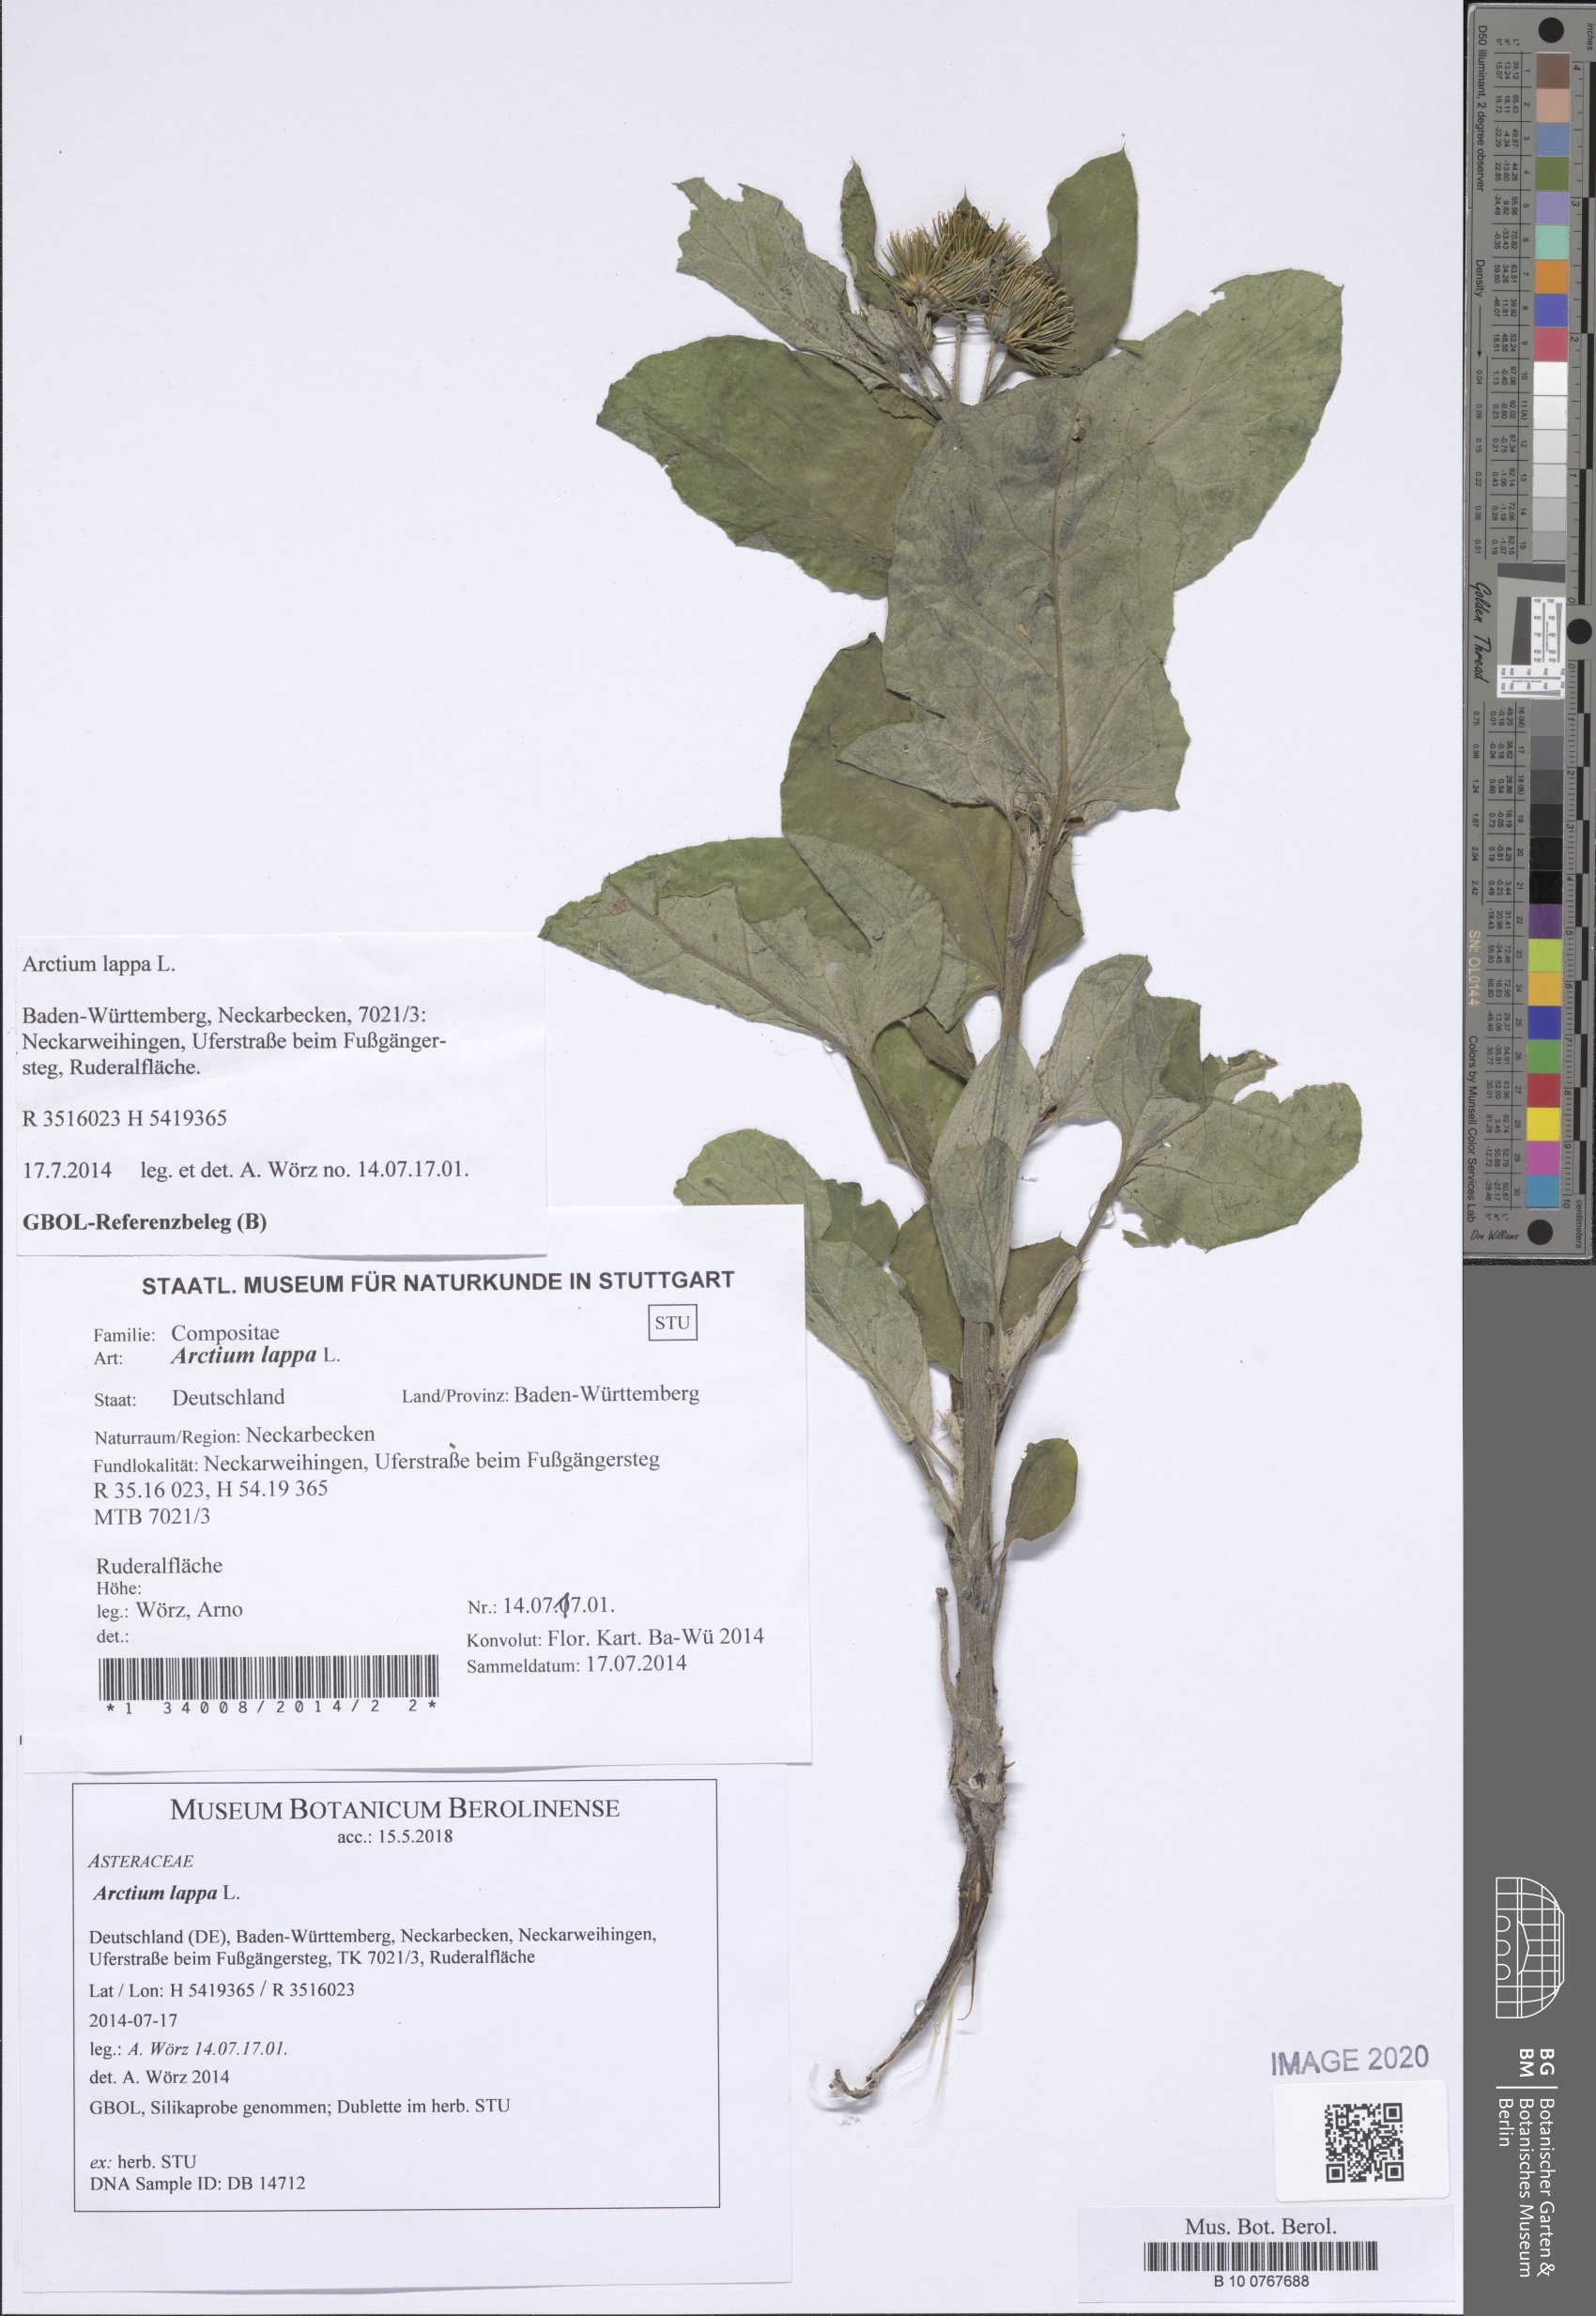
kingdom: Plantae
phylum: Tracheophyta
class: Magnoliopsida
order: Asterales
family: Asteraceae
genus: Arctium
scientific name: Arctium lappa
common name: Greater burdock
